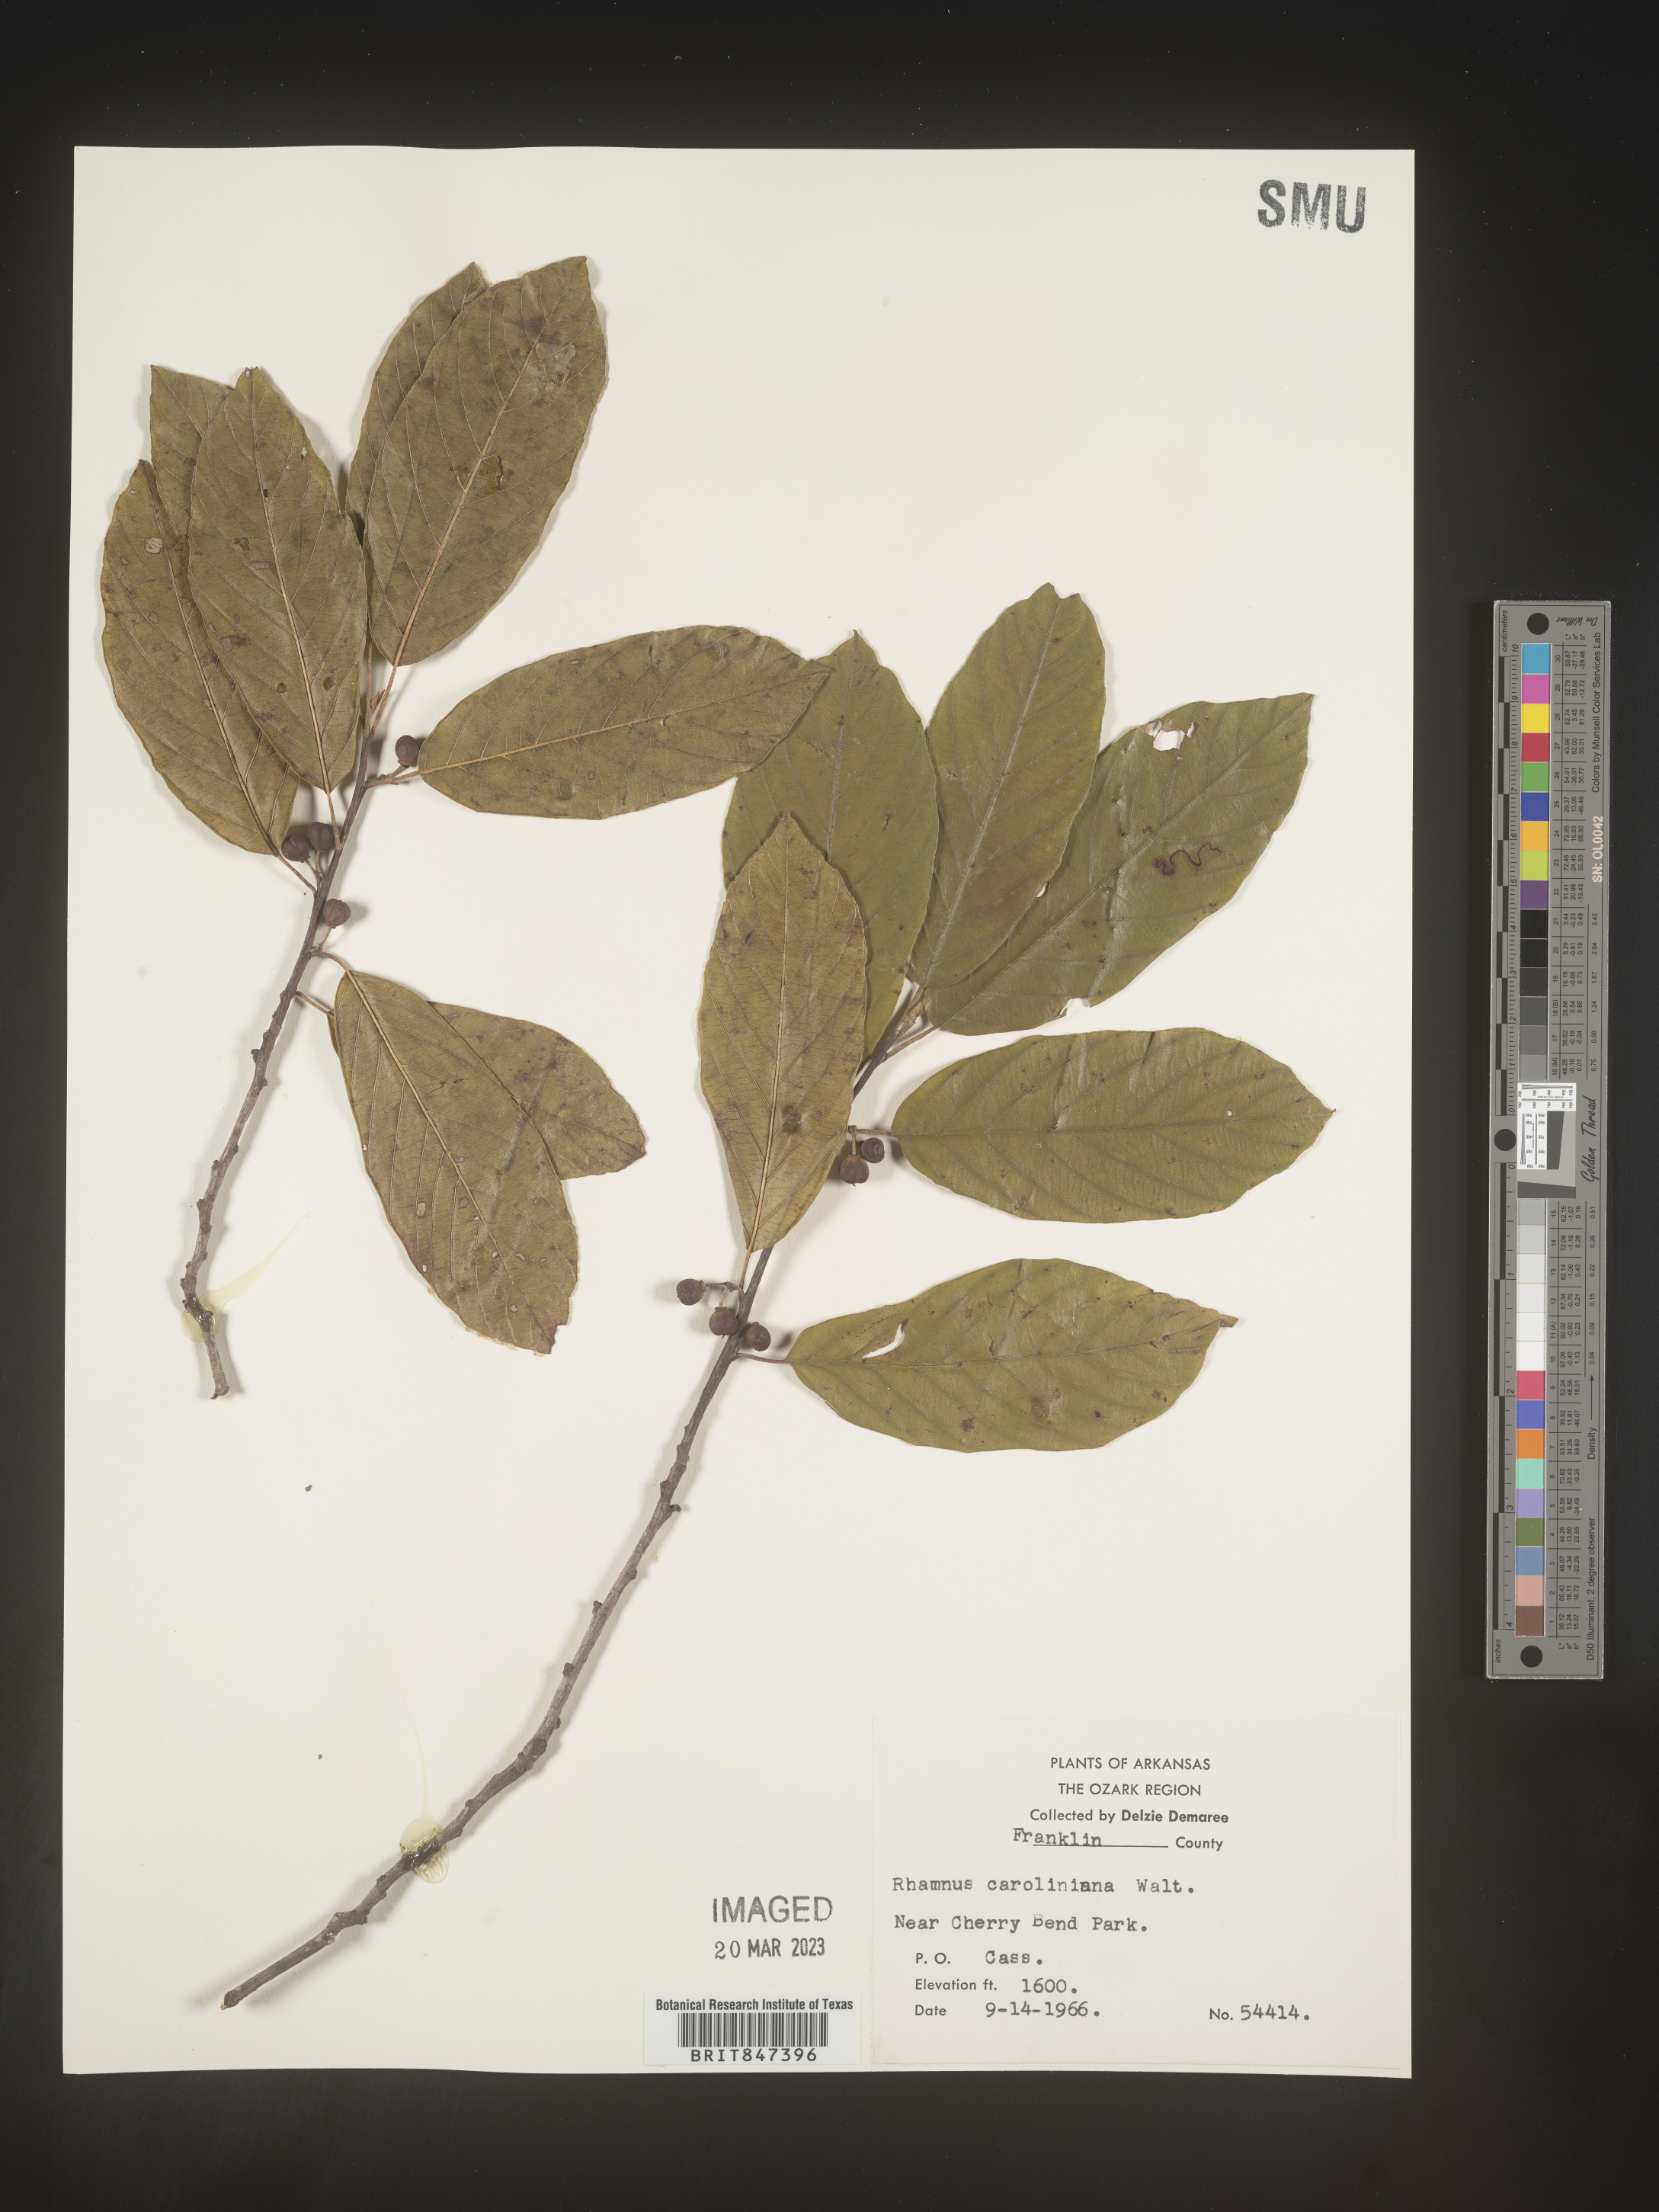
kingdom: Plantae
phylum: Tracheophyta
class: Magnoliopsida
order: Rosales
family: Rhamnaceae
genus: Frangula
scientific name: Frangula caroliniana
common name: Carolina buckthorn
